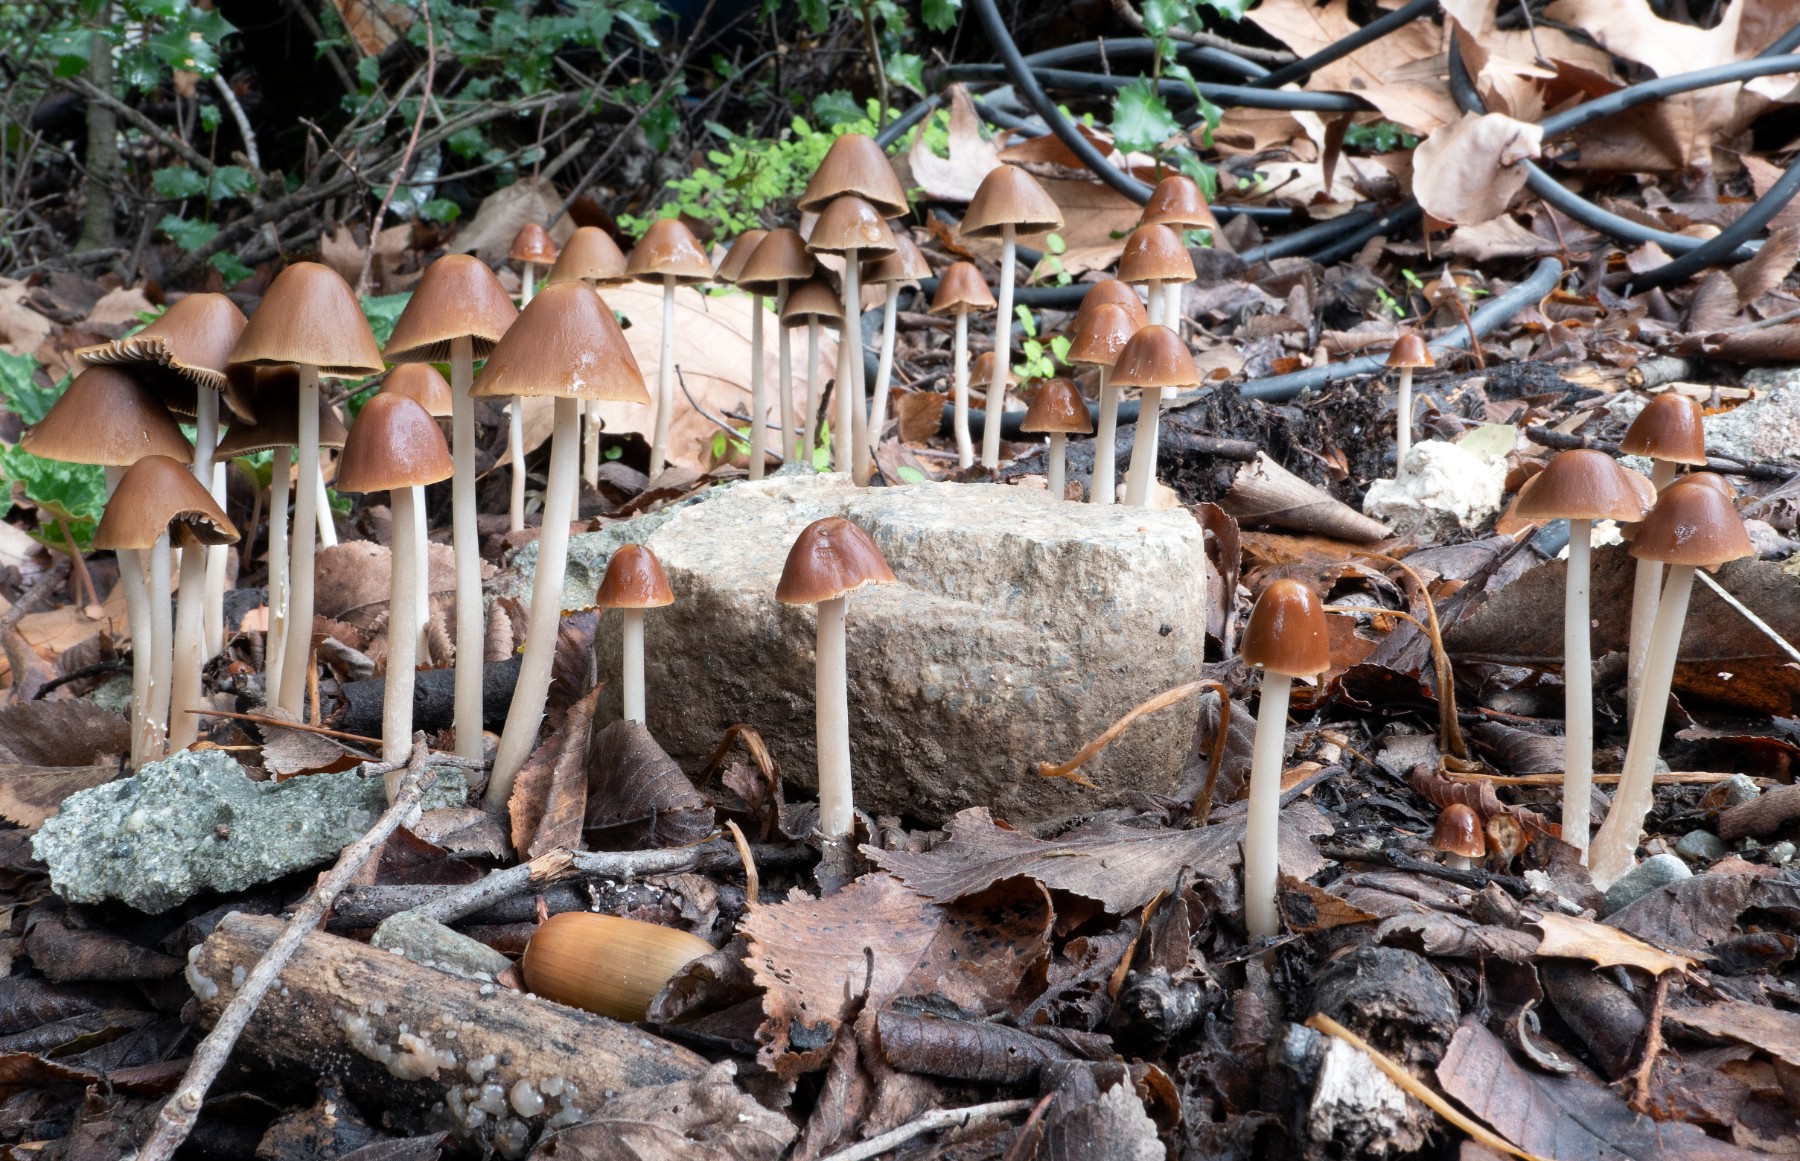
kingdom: Fungi
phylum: Basidiomycota
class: Agaricomycetes
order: Agaricales
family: Psathyrellaceae
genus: Parasola
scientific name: Parasola conopilea
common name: kegle-hjulhat
